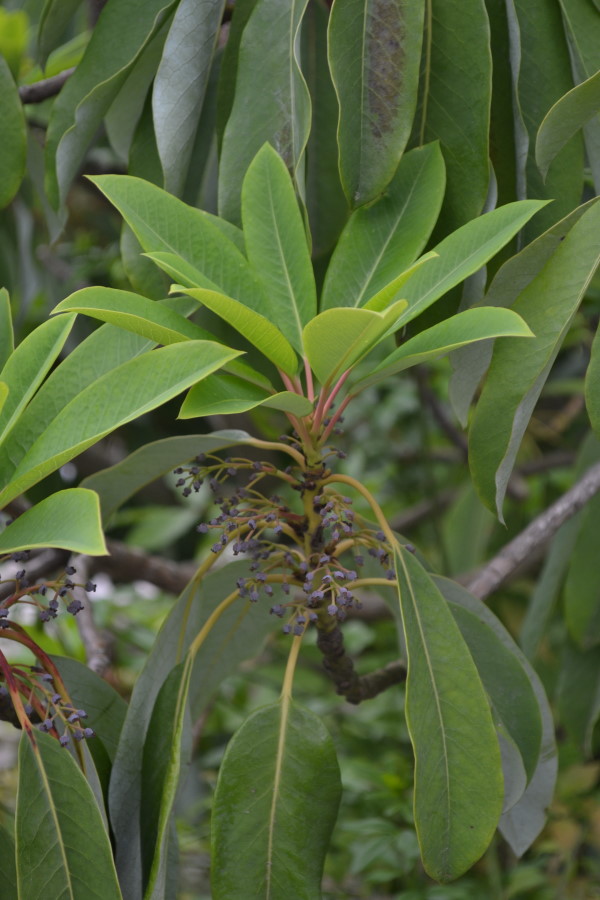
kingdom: Plantae
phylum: Tracheophyta
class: Magnoliopsida
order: Ericales
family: Theaceae
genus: Camellia
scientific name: Camellia sasanqua
